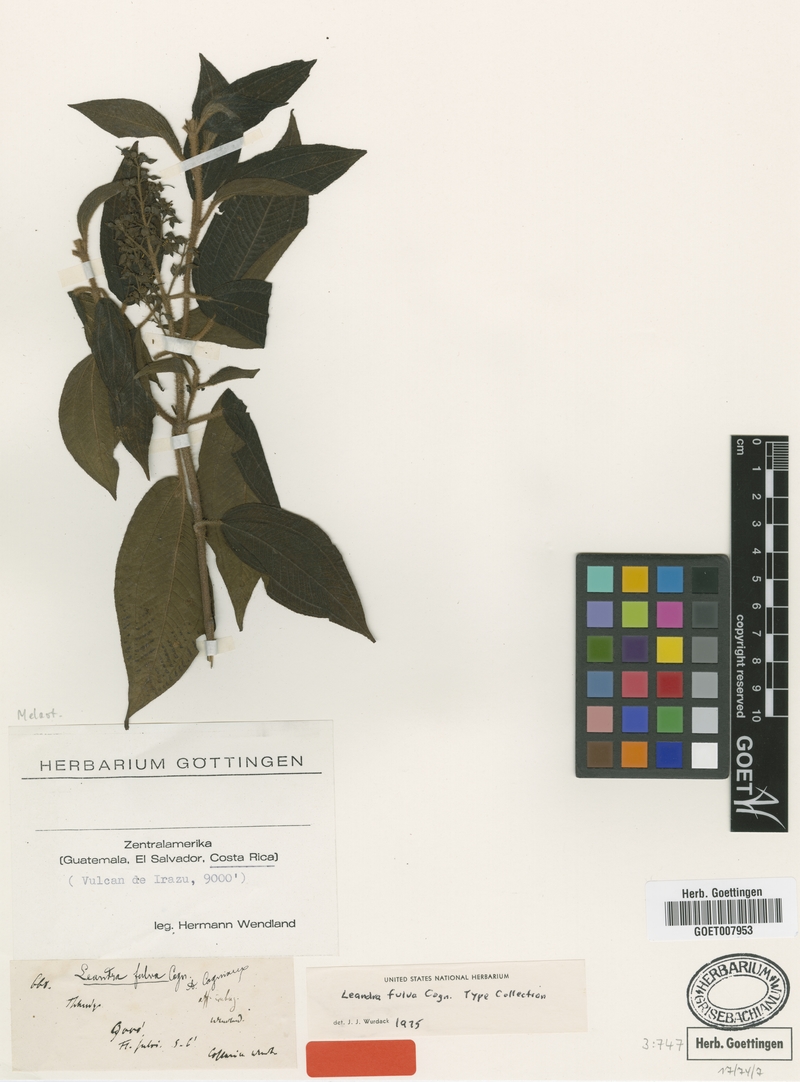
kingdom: Plantae
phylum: Tracheophyta
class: Magnoliopsida
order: Myrtales
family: Melastomataceae
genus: Miconia
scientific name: Miconia melanodesma
